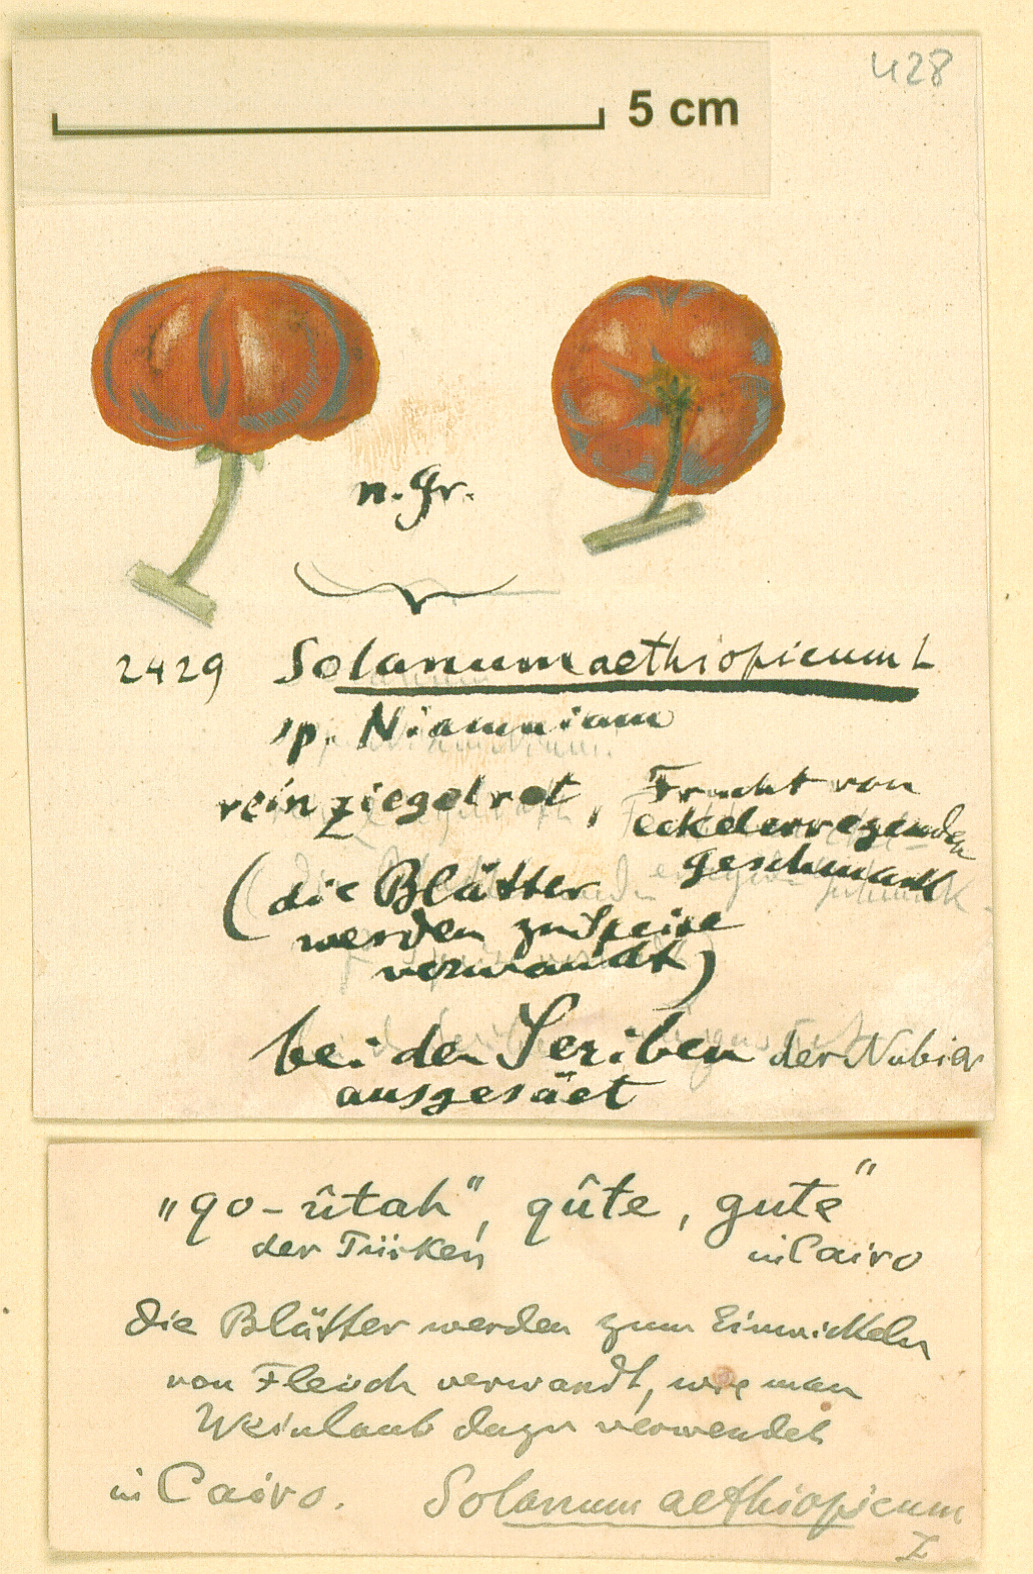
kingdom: Plantae
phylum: Tracheophyta
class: Magnoliopsida
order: Solanales
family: Solanaceae
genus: Solanum
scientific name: Solanum aethiopicum
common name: Gilo
